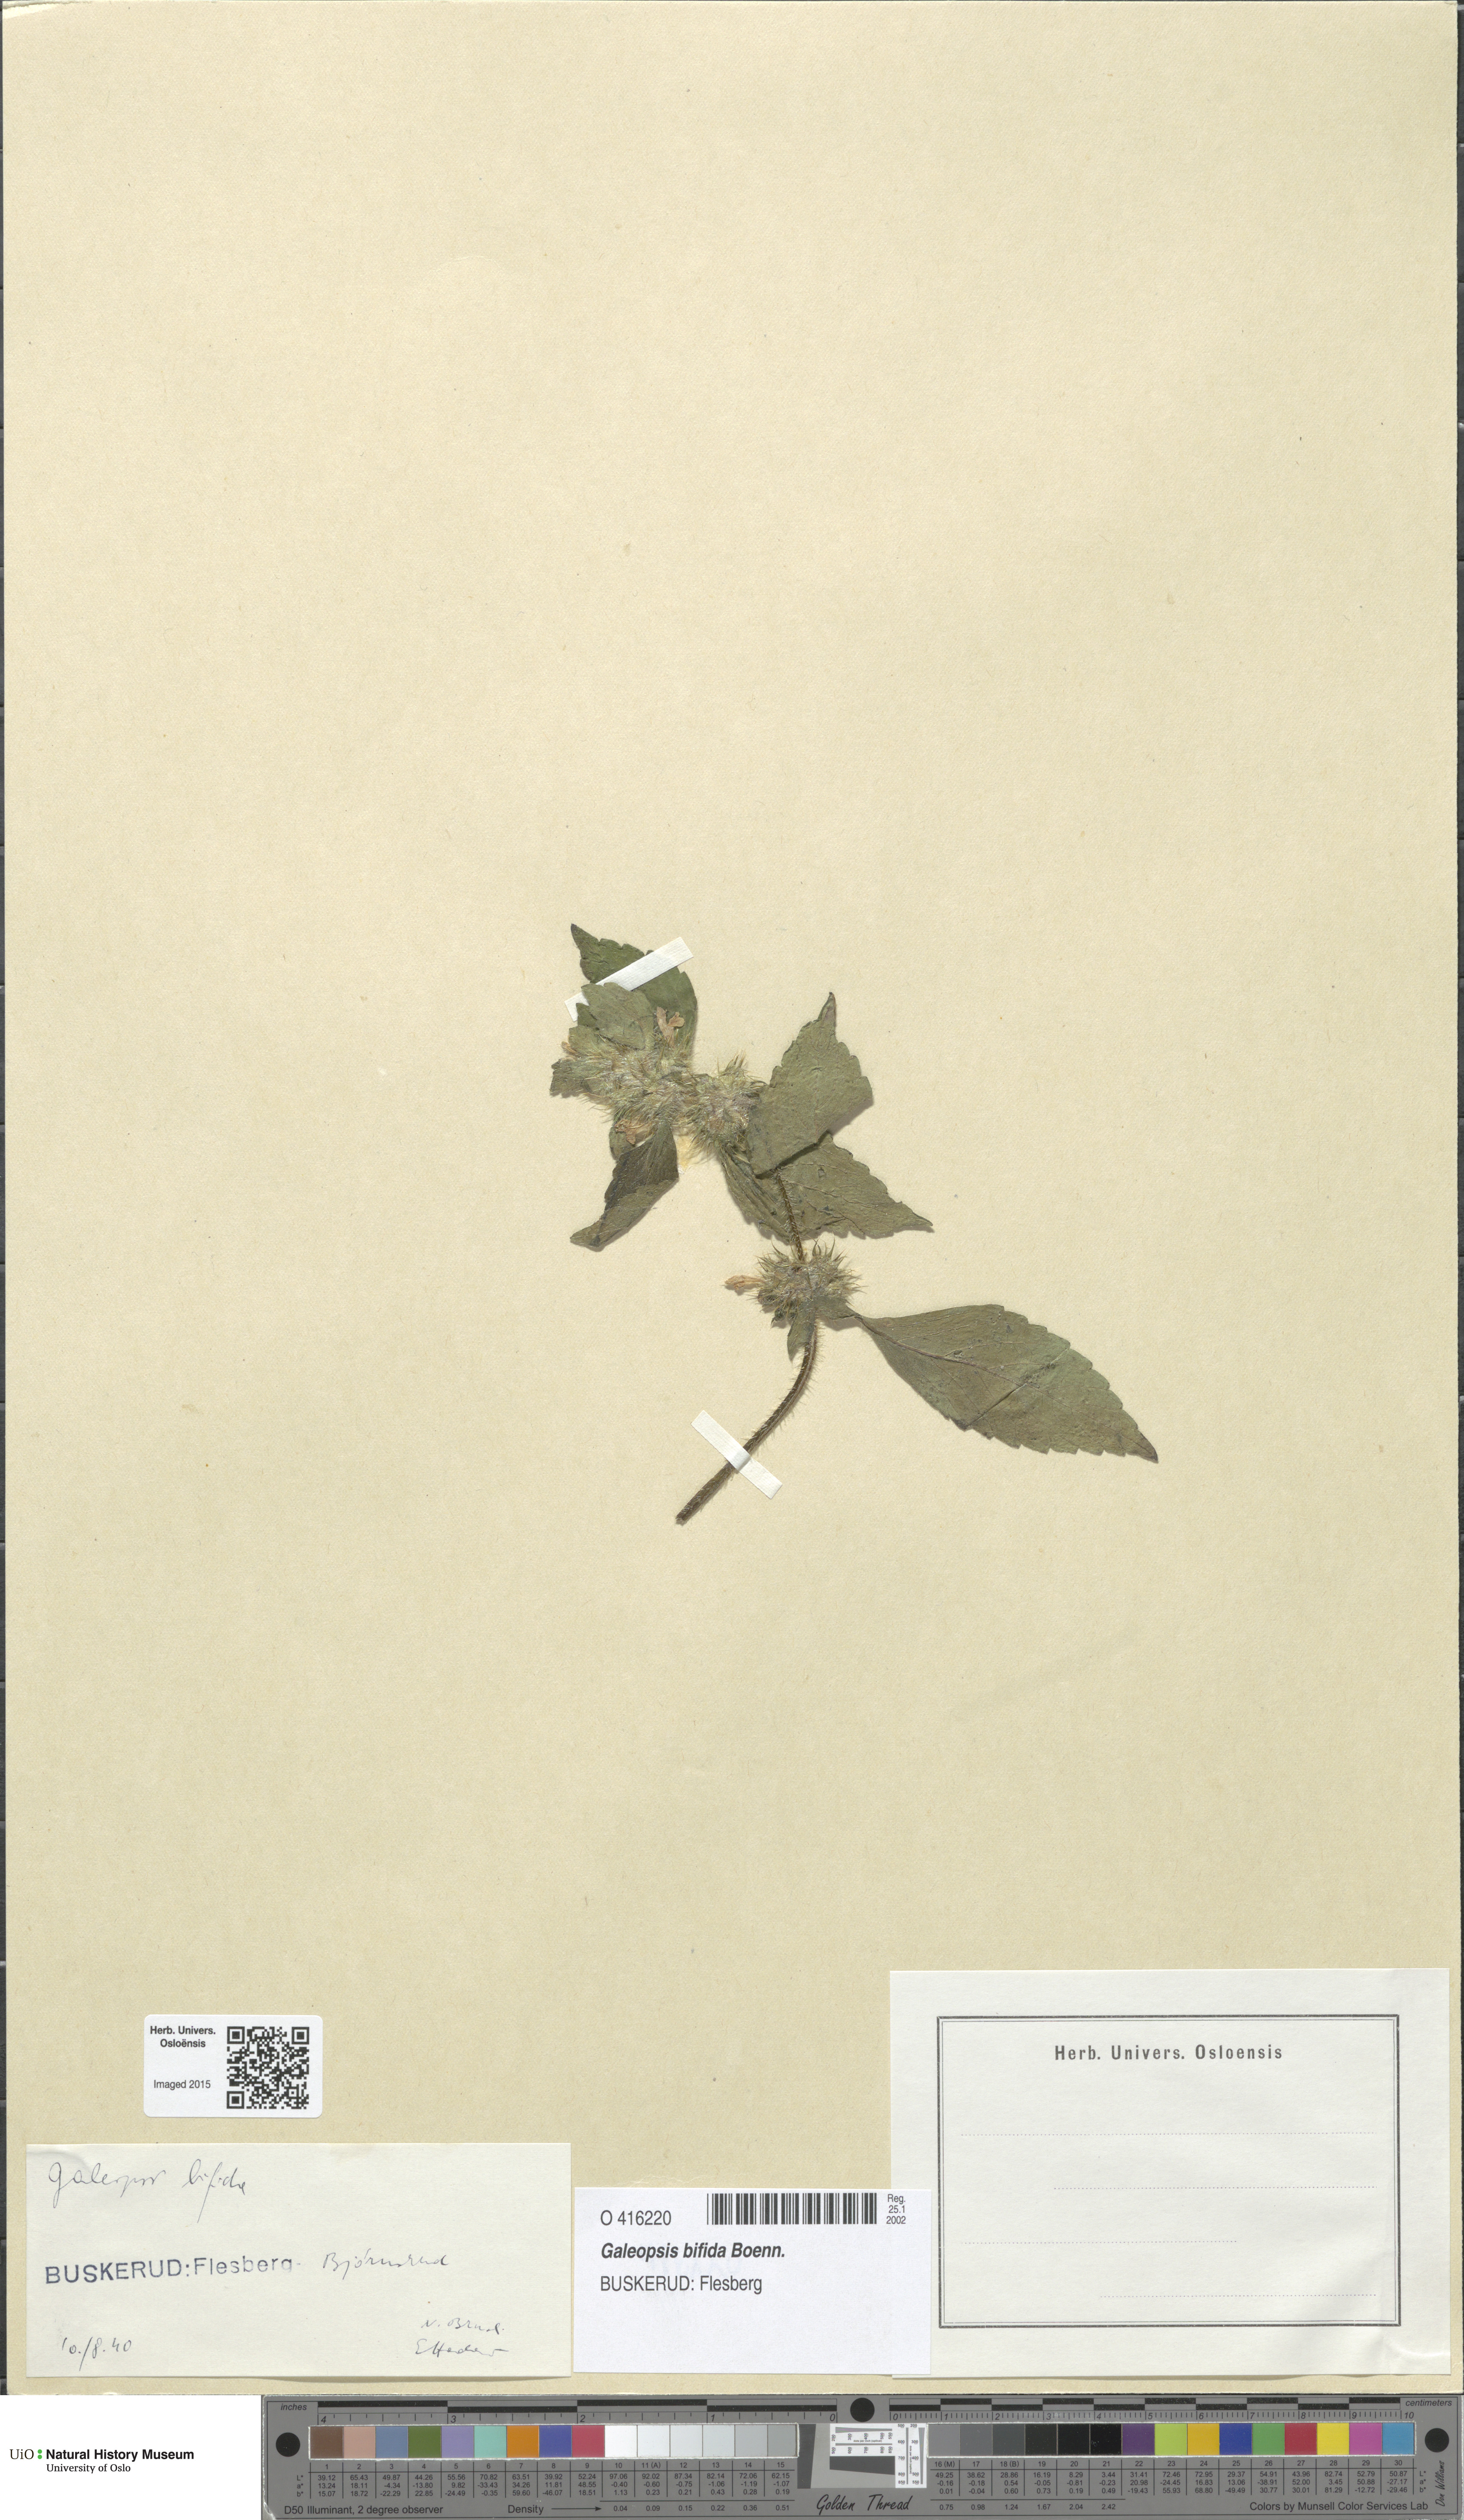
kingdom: Plantae
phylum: Tracheophyta
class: Magnoliopsida
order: Lamiales
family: Lamiaceae
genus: Galeopsis
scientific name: Galeopsis bifida
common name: Bifid hemp-nettle
